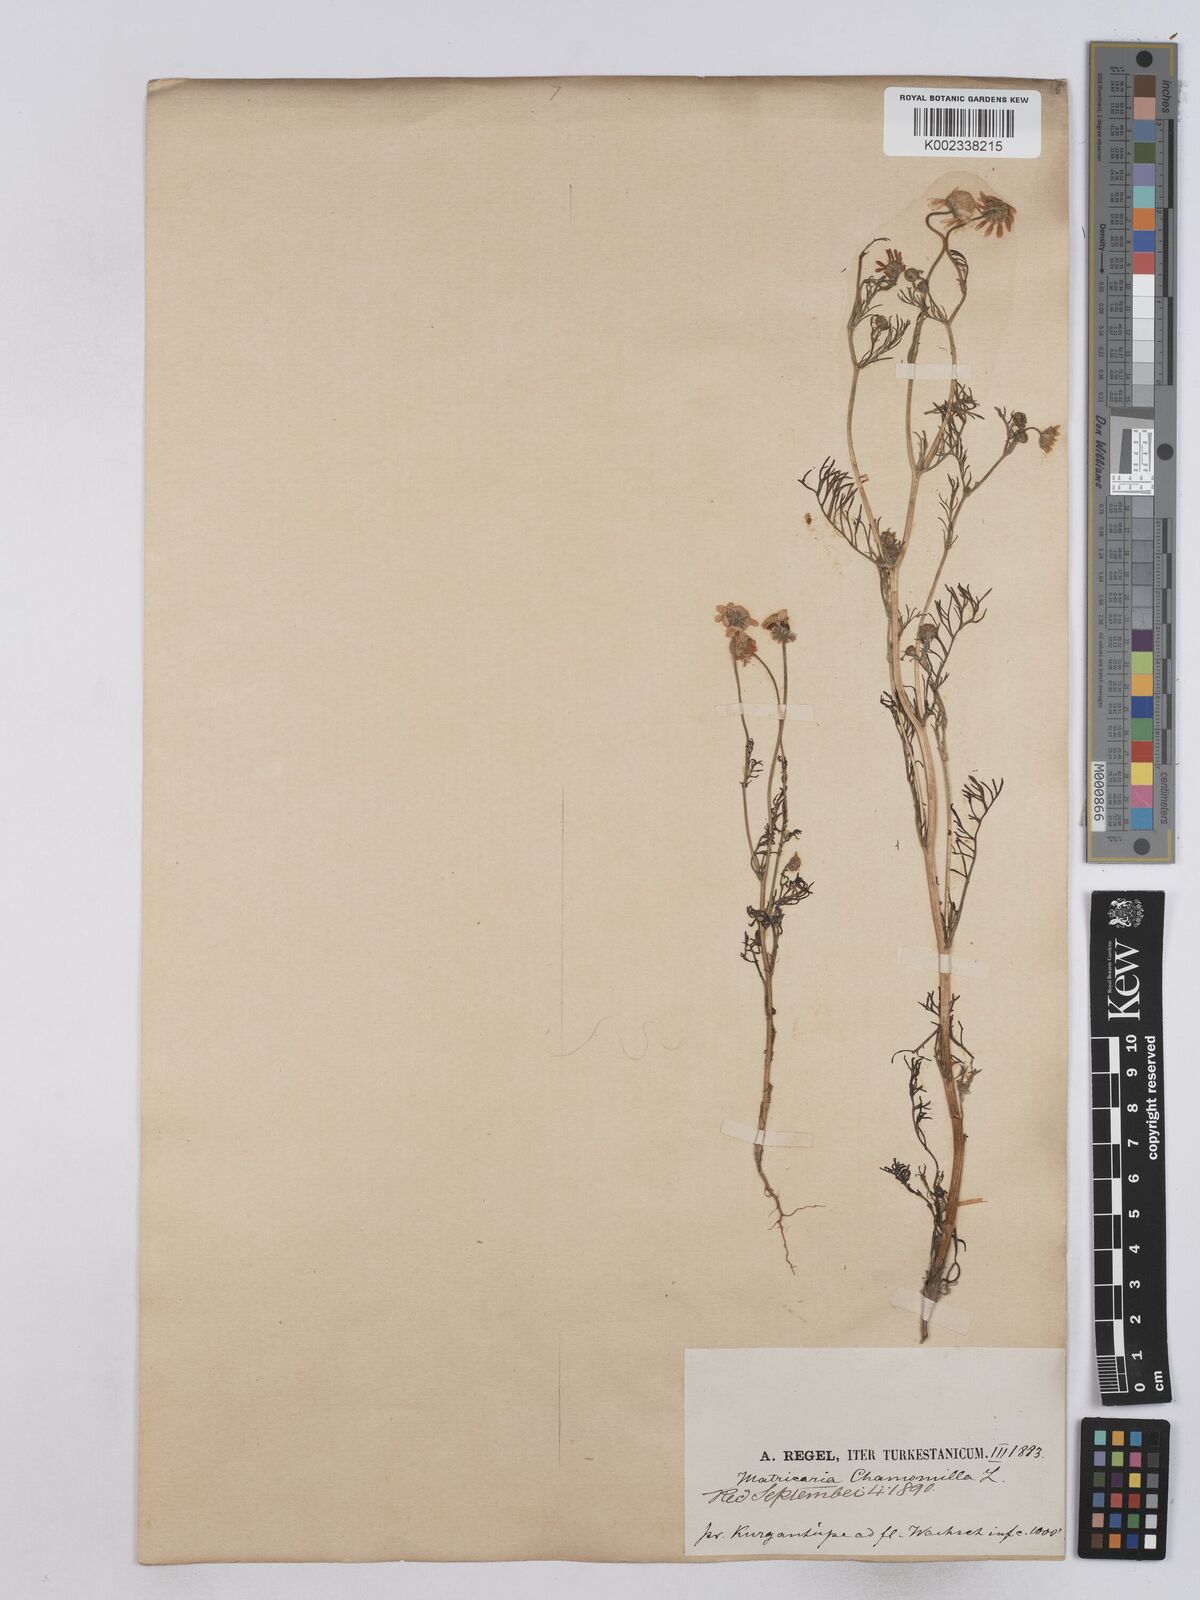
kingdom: Plantae
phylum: Tracheophyta
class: Magnoliopsida
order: Asterales
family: Asteraceae
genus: Matricaria
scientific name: Matricaria chamomilla
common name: Scented mayweed
